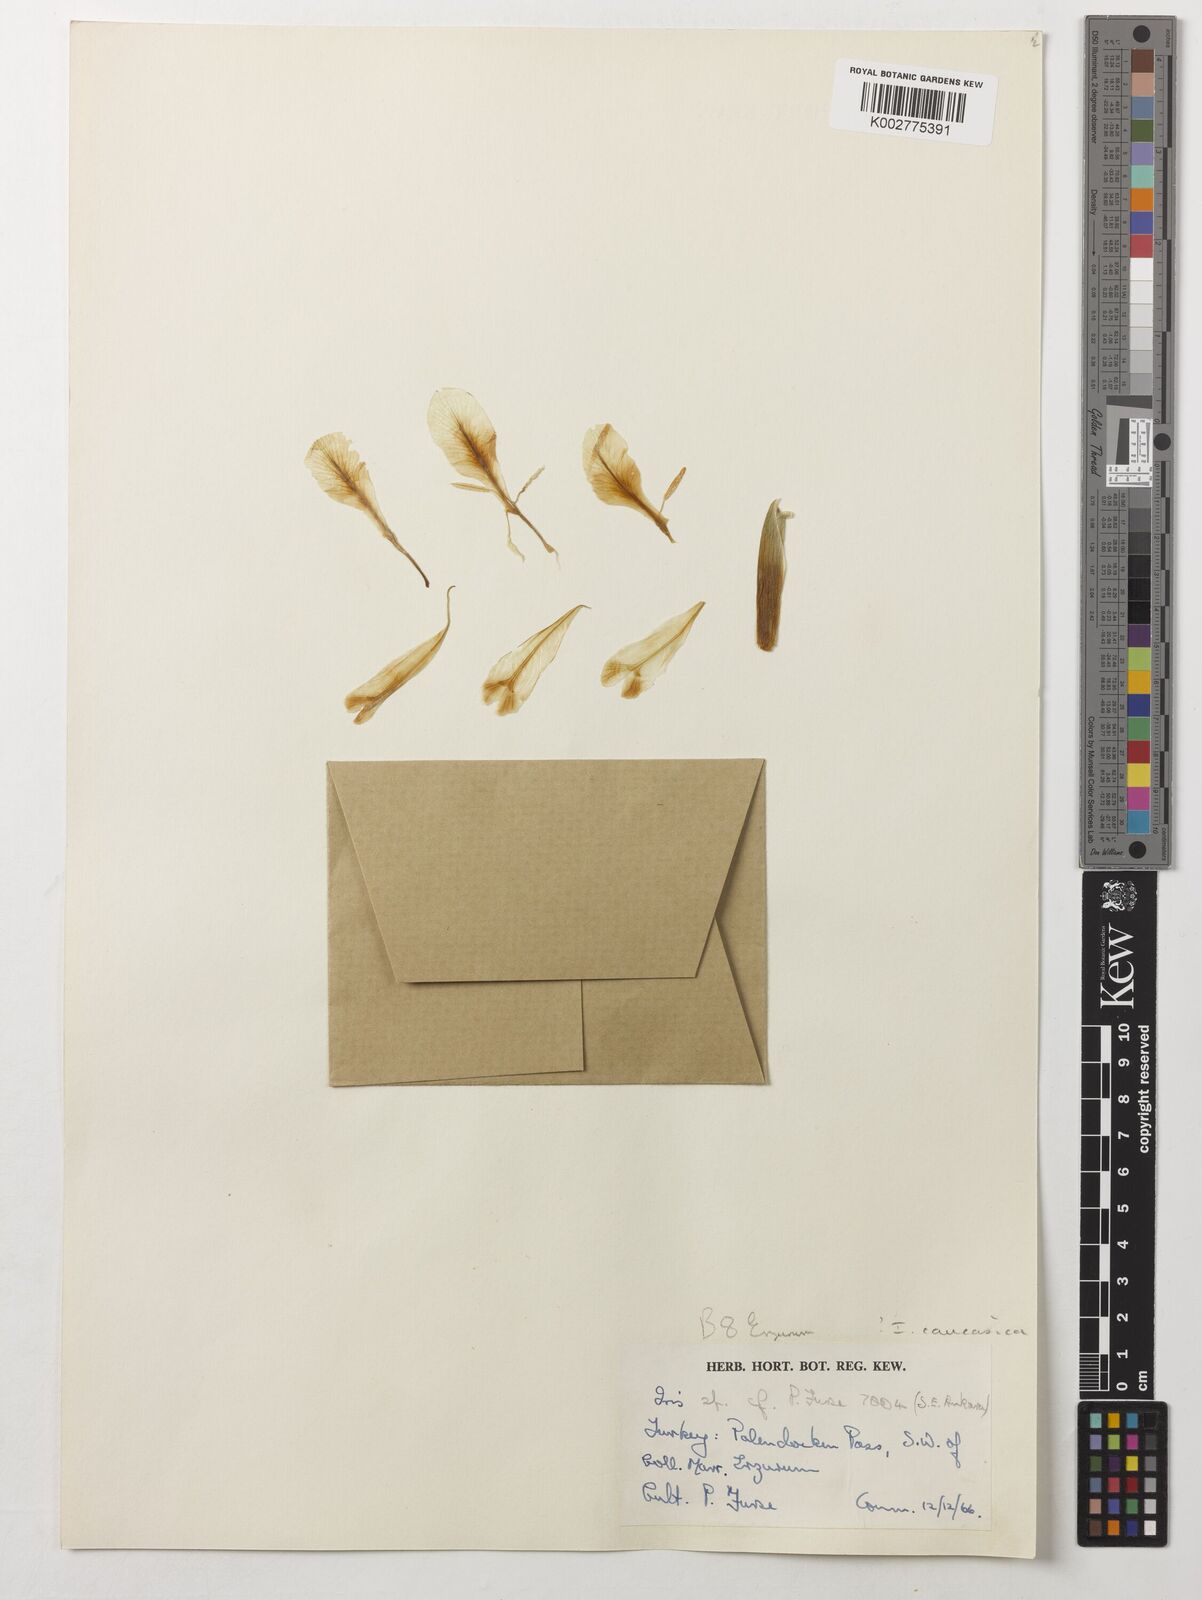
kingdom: Plantae
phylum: Tracheophyta
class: Liliopsida
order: Asparagales
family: Iridaceae
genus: Iris
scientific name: Iris caucasica
